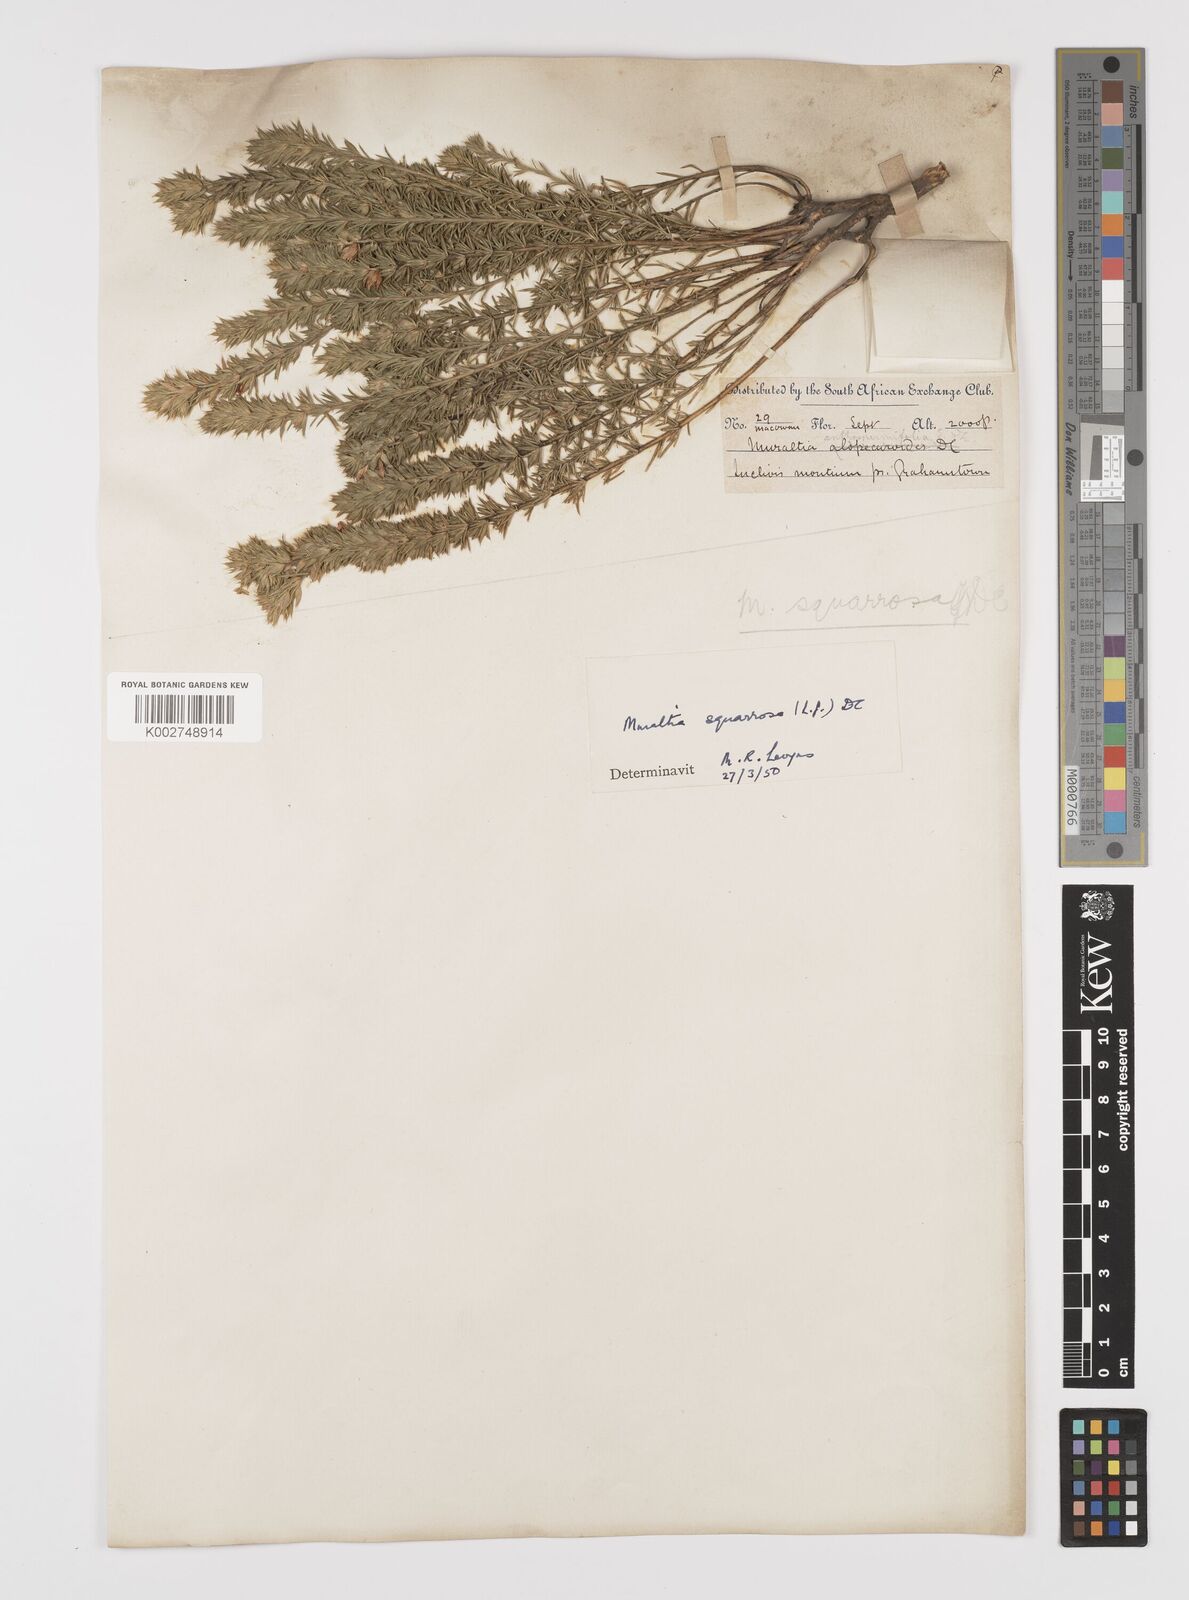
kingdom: Plantae
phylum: Tracheophyta
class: Magnoliopsida
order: Fabales
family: Polygalaceae
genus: Muraltia
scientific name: Muraltia squarrosa
